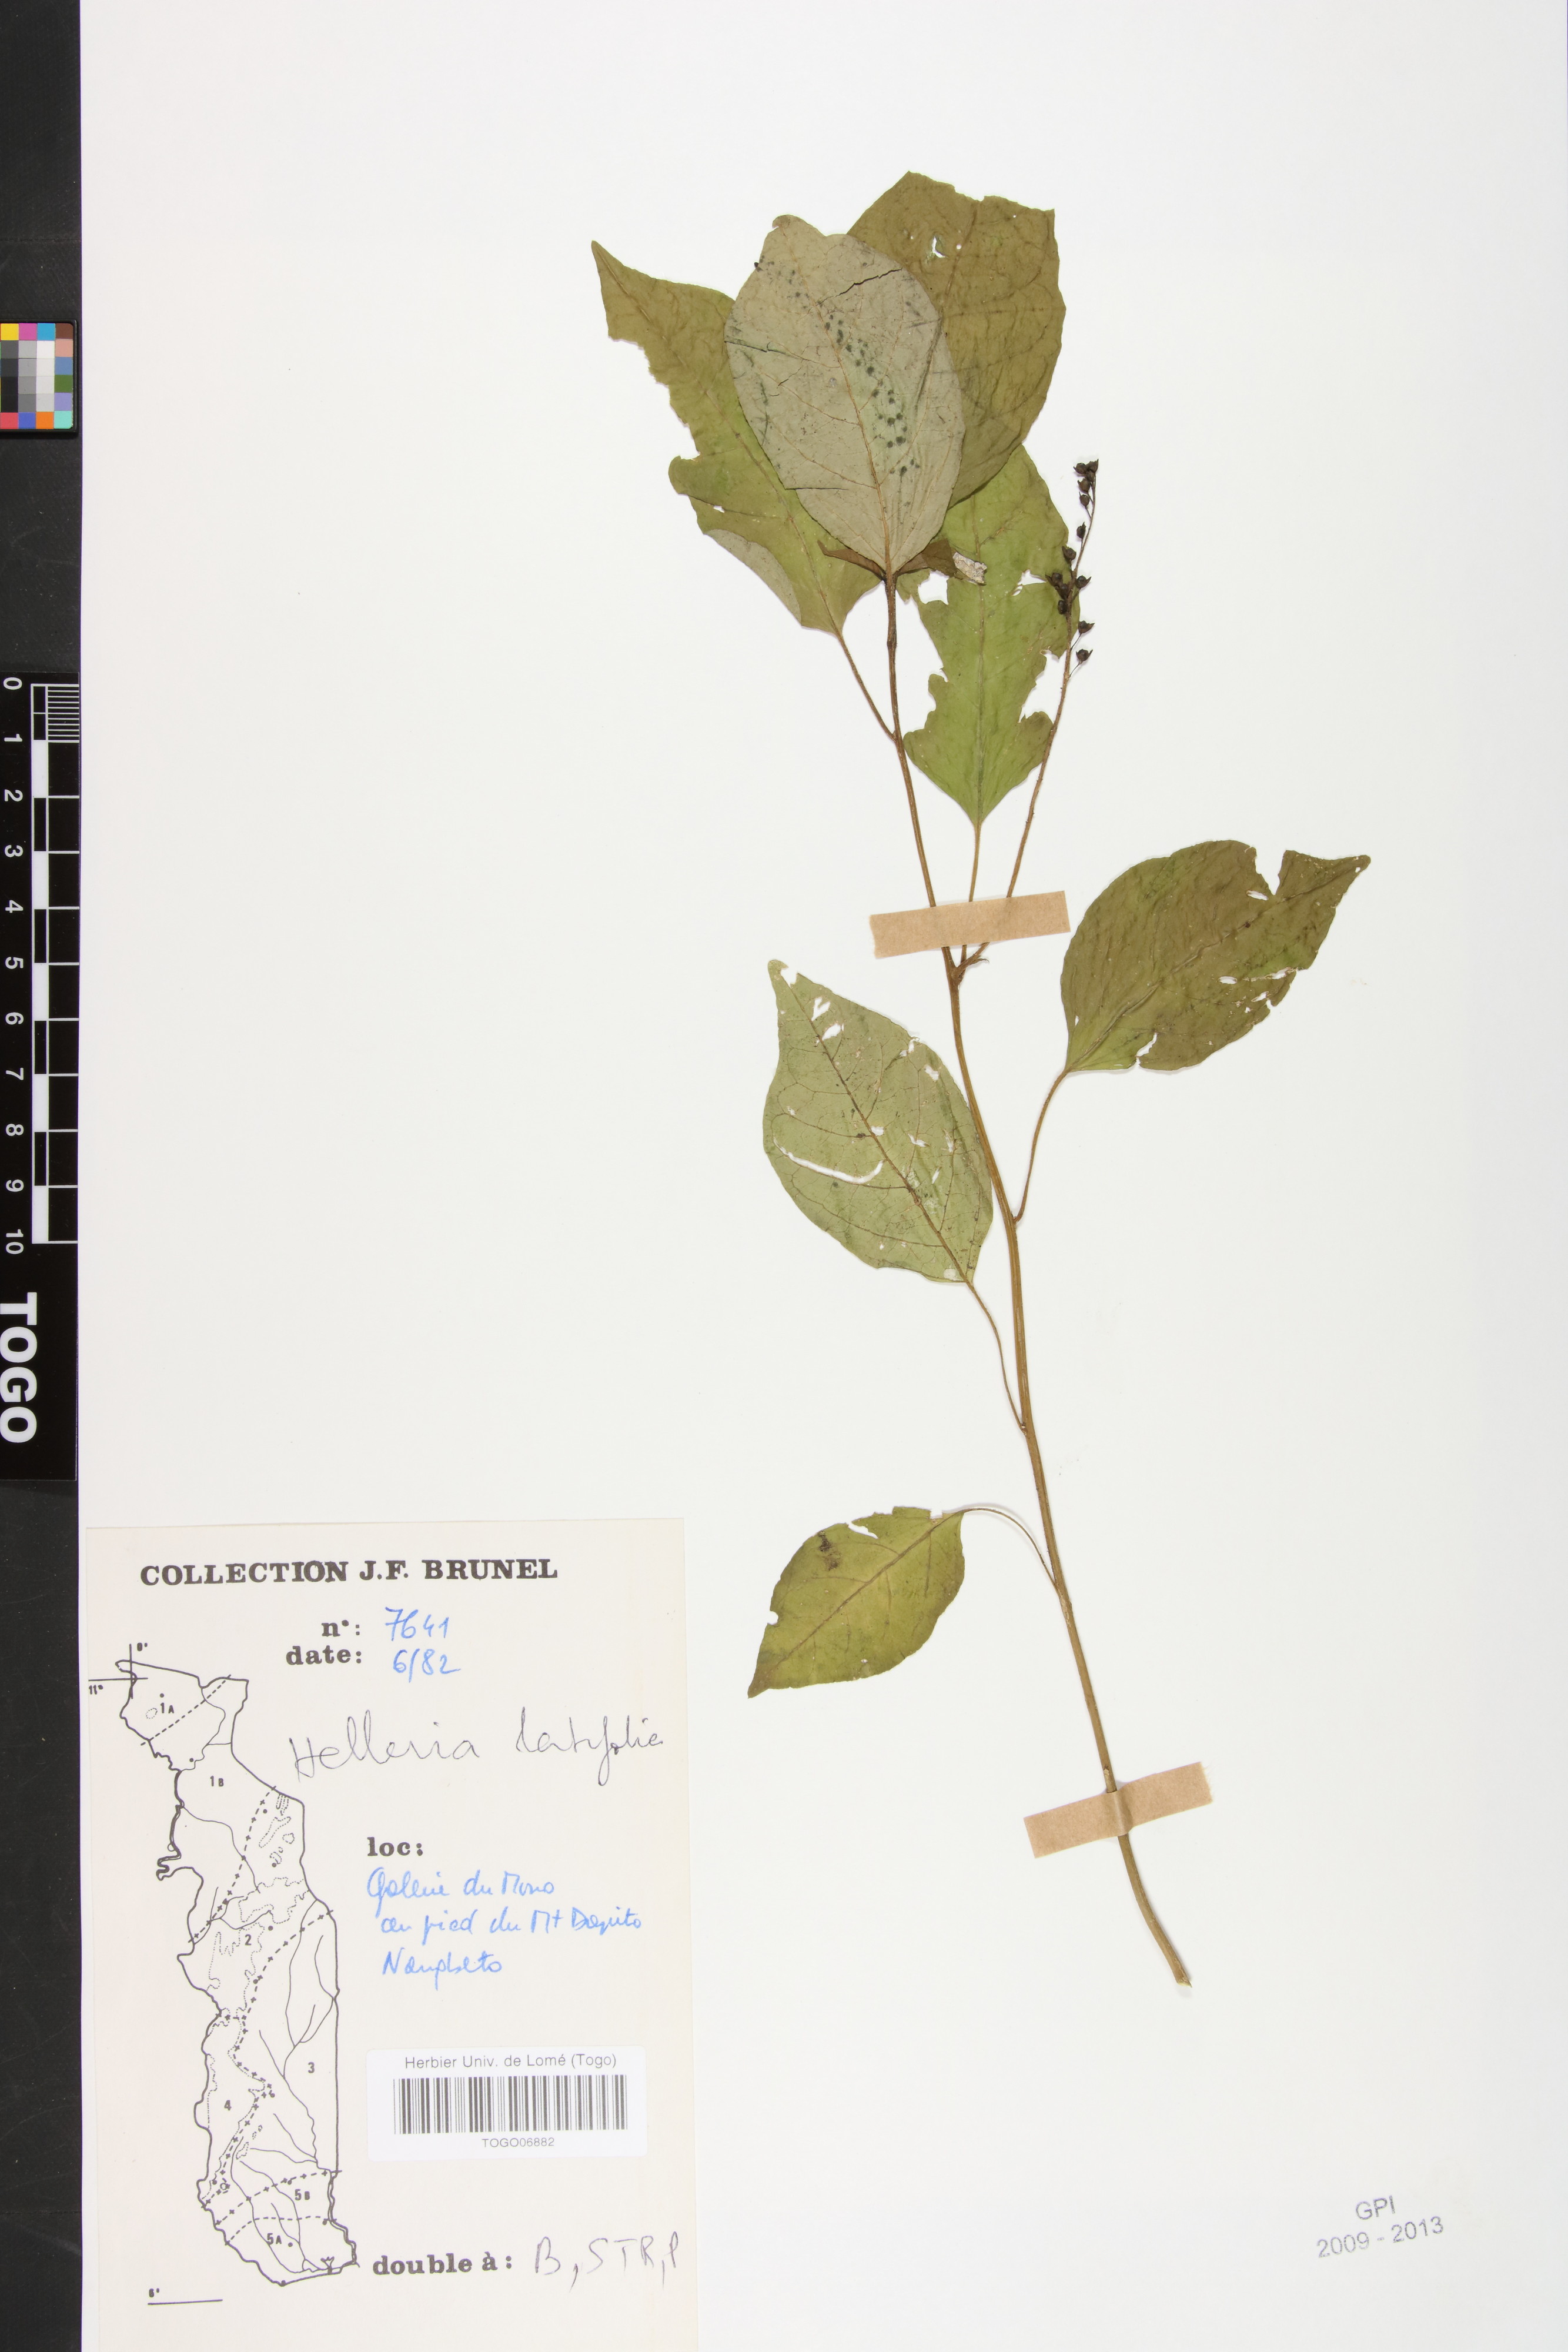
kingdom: Plantae
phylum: Tracheophyta
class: Magnoliopsida
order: Caryophyllales
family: Phytolaccaceae
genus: Hilleria
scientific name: Hilleria latifolia
